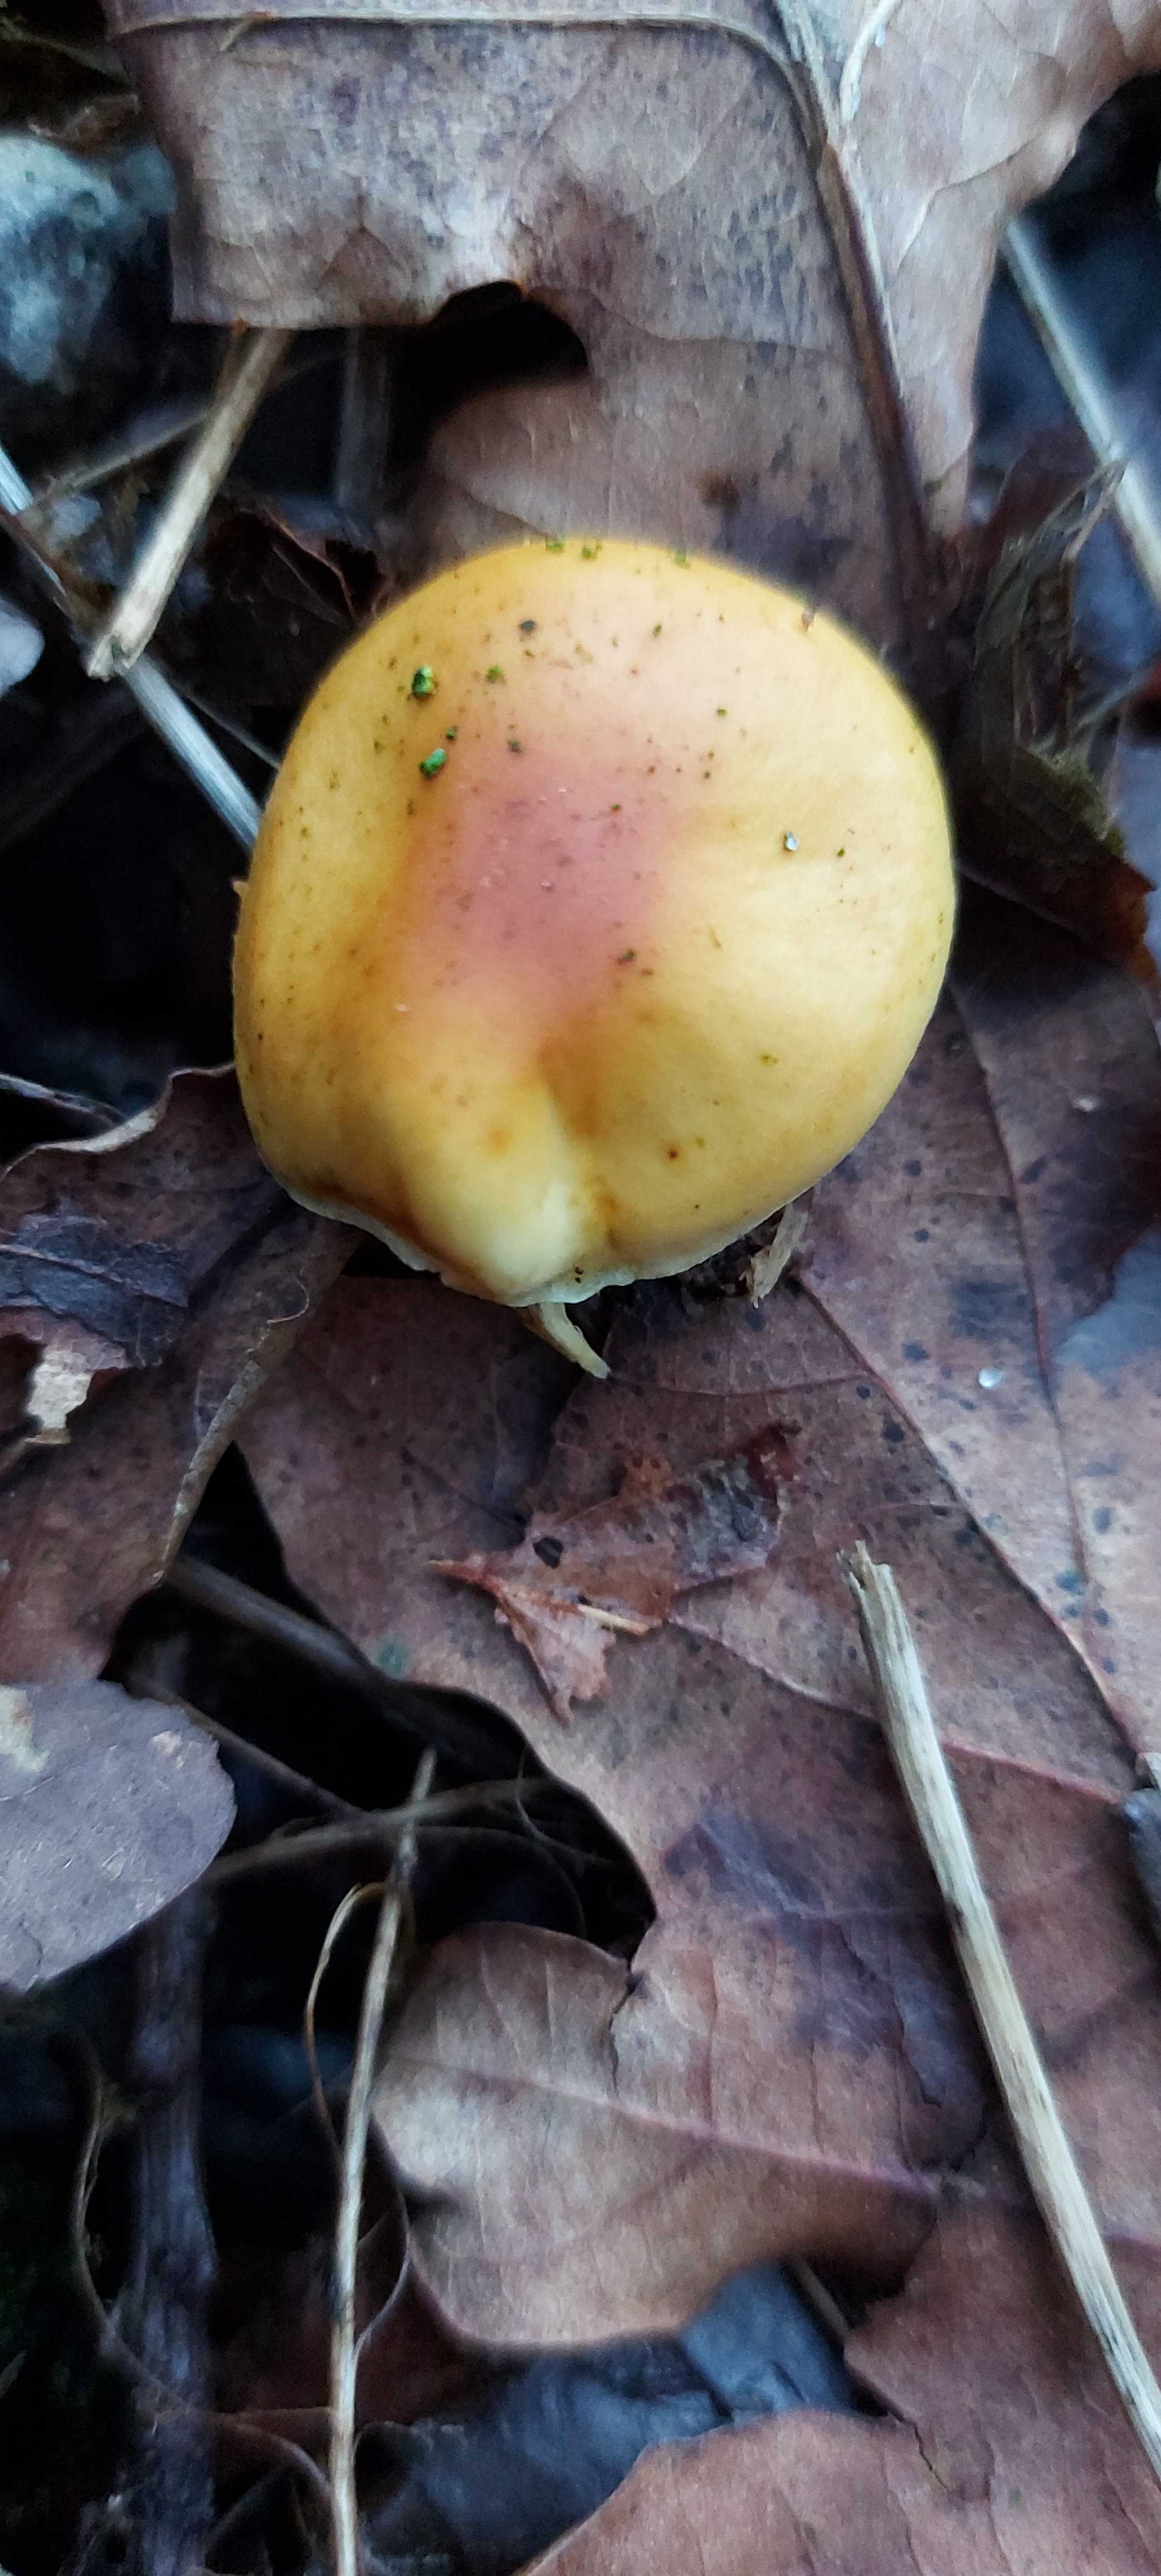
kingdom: Fungi
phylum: Basidiomycota
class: Agaricomycetes
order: Agaricales
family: Physalacriaceae
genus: Flammulina
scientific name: Flammulina velutipes
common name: gul fløjlsfod
